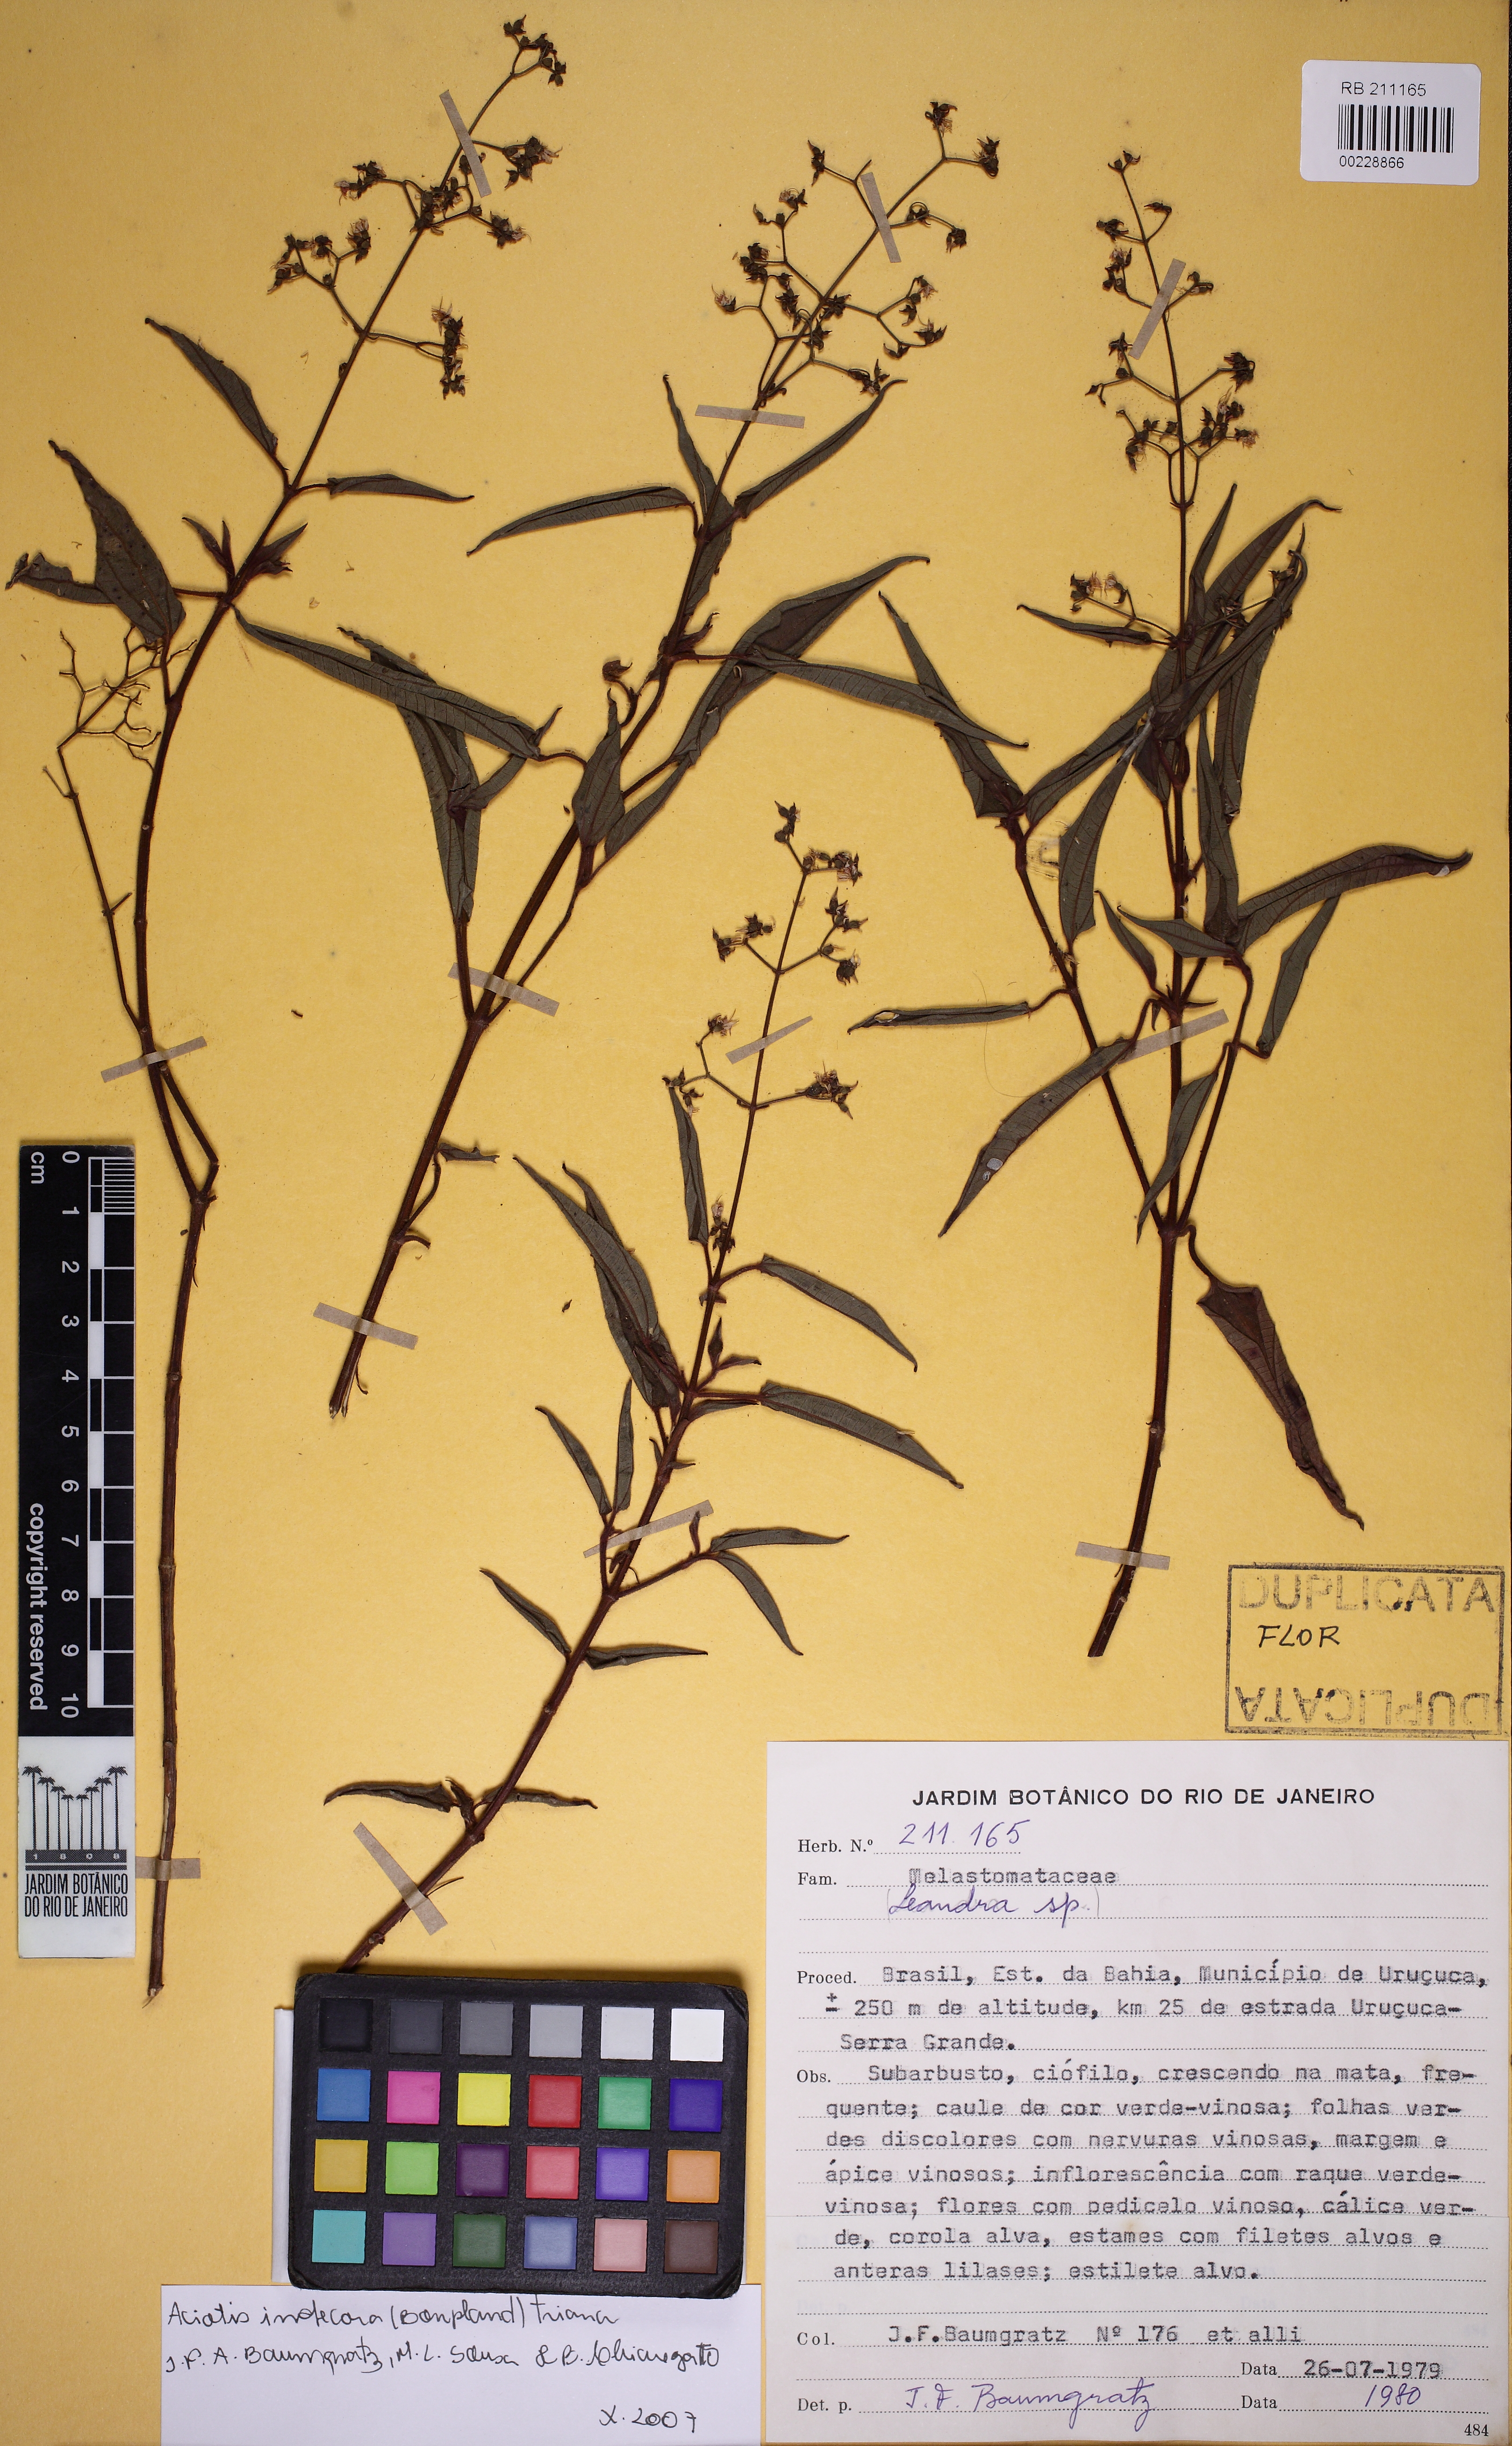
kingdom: Plantae
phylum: Tracheophyta
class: Magnoliopsida
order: Myrtales
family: Melastomataceae
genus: Aciotis
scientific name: Aciotis indecora
